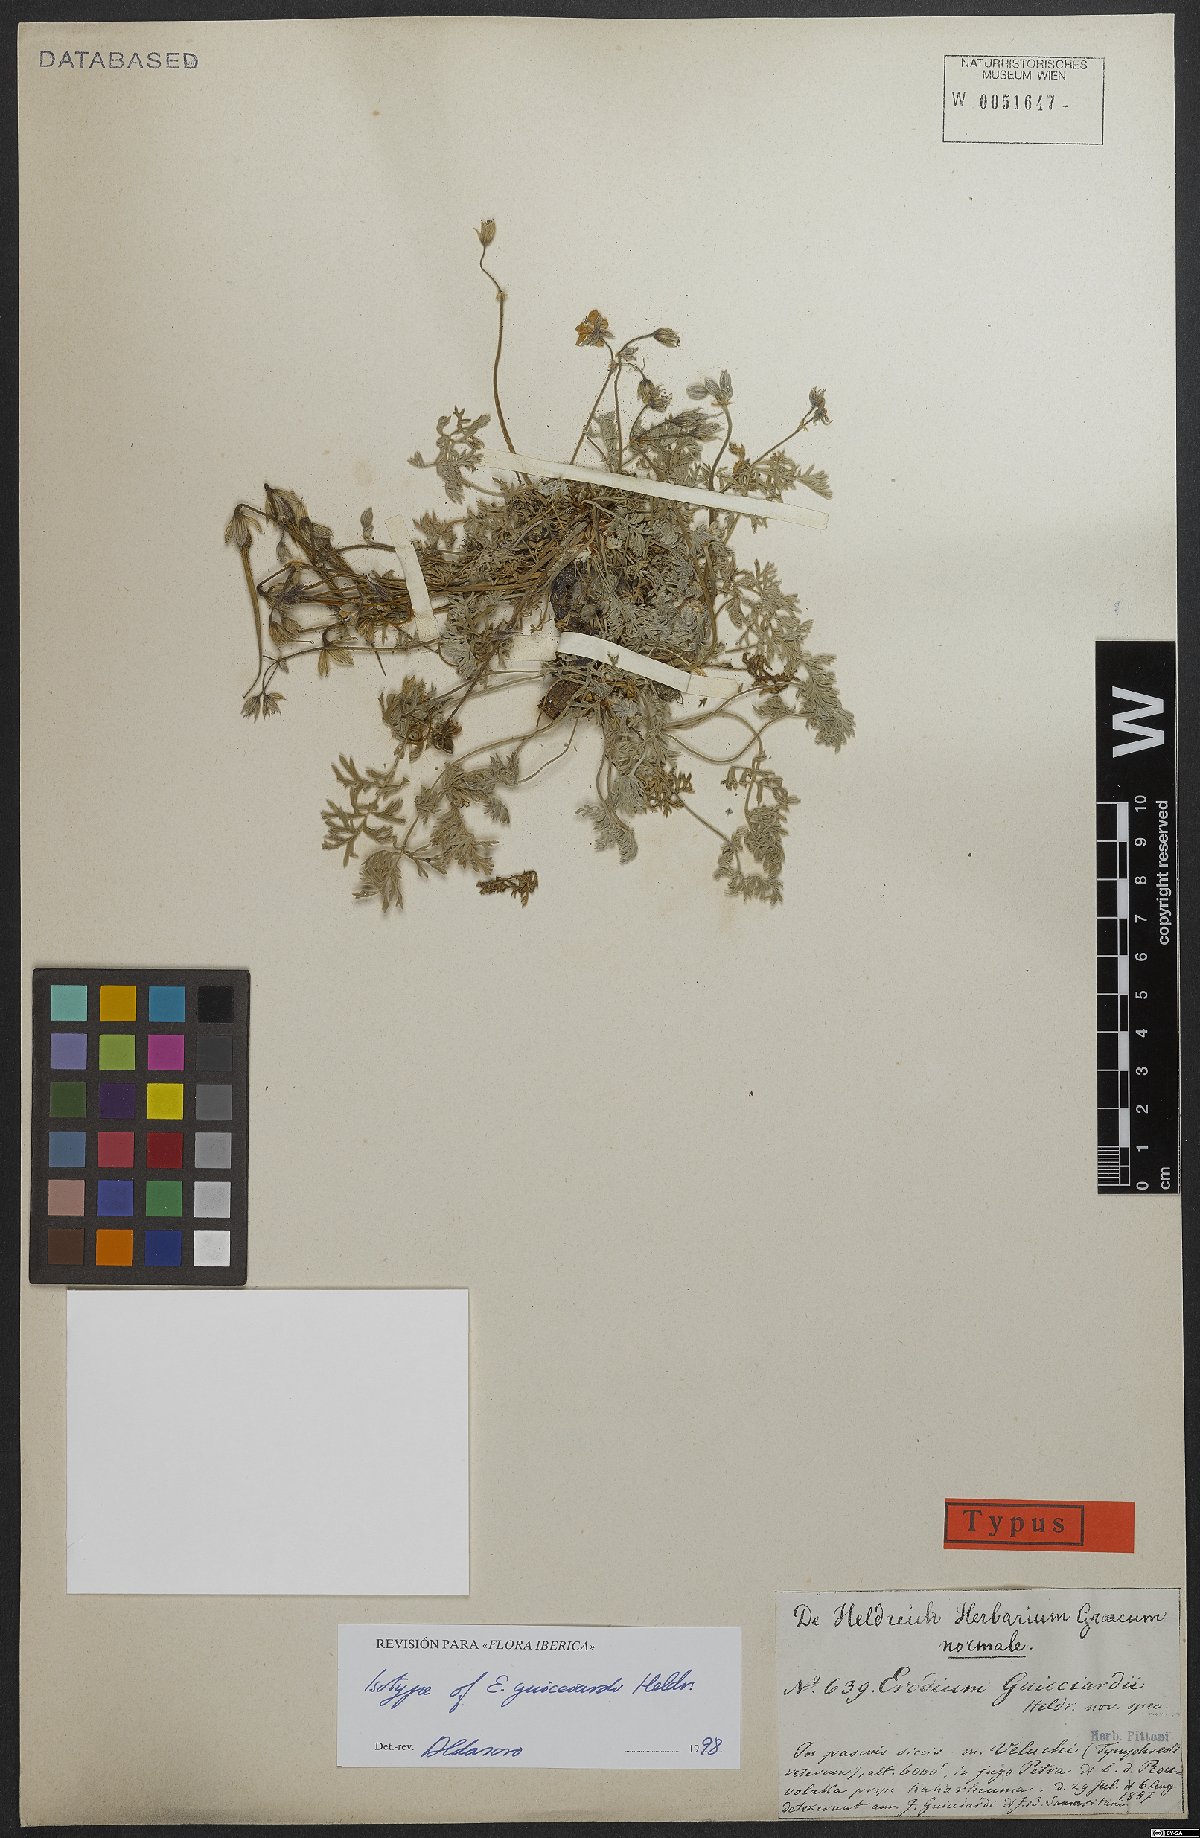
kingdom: Plantae
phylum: Tracheophyta
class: Magnoliopsida
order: Geraniales
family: Geraniaceae
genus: Erodium
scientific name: Erodium absinthoides
